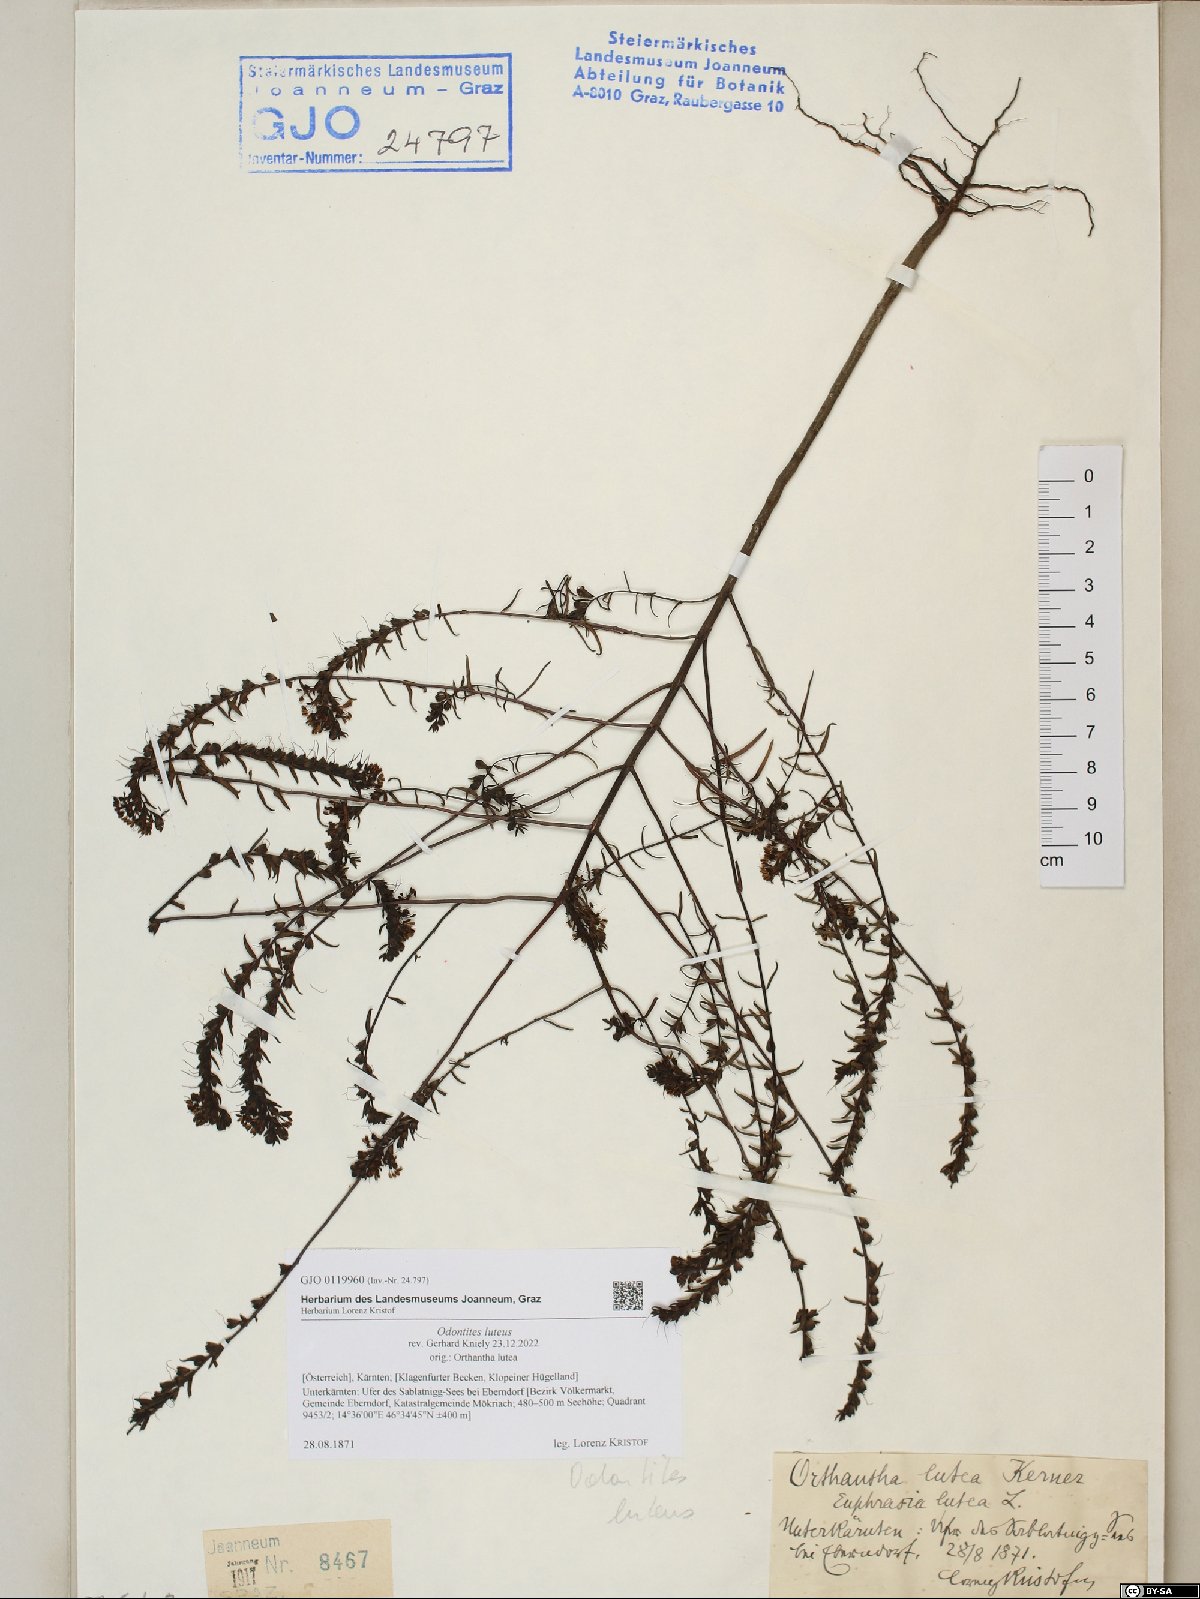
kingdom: Plantae
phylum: Tracheophyta
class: Magnoliopsida
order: Lamiales
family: Orobanchaceae
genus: Odontites
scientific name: Odontites luteus
